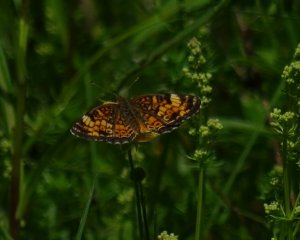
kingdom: Animalia
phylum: Arthropoda
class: Insecta
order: Lepidoptera
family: Nymphalidae
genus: Phyciodes
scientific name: Phyciodes tharos
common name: Northern Crescent
